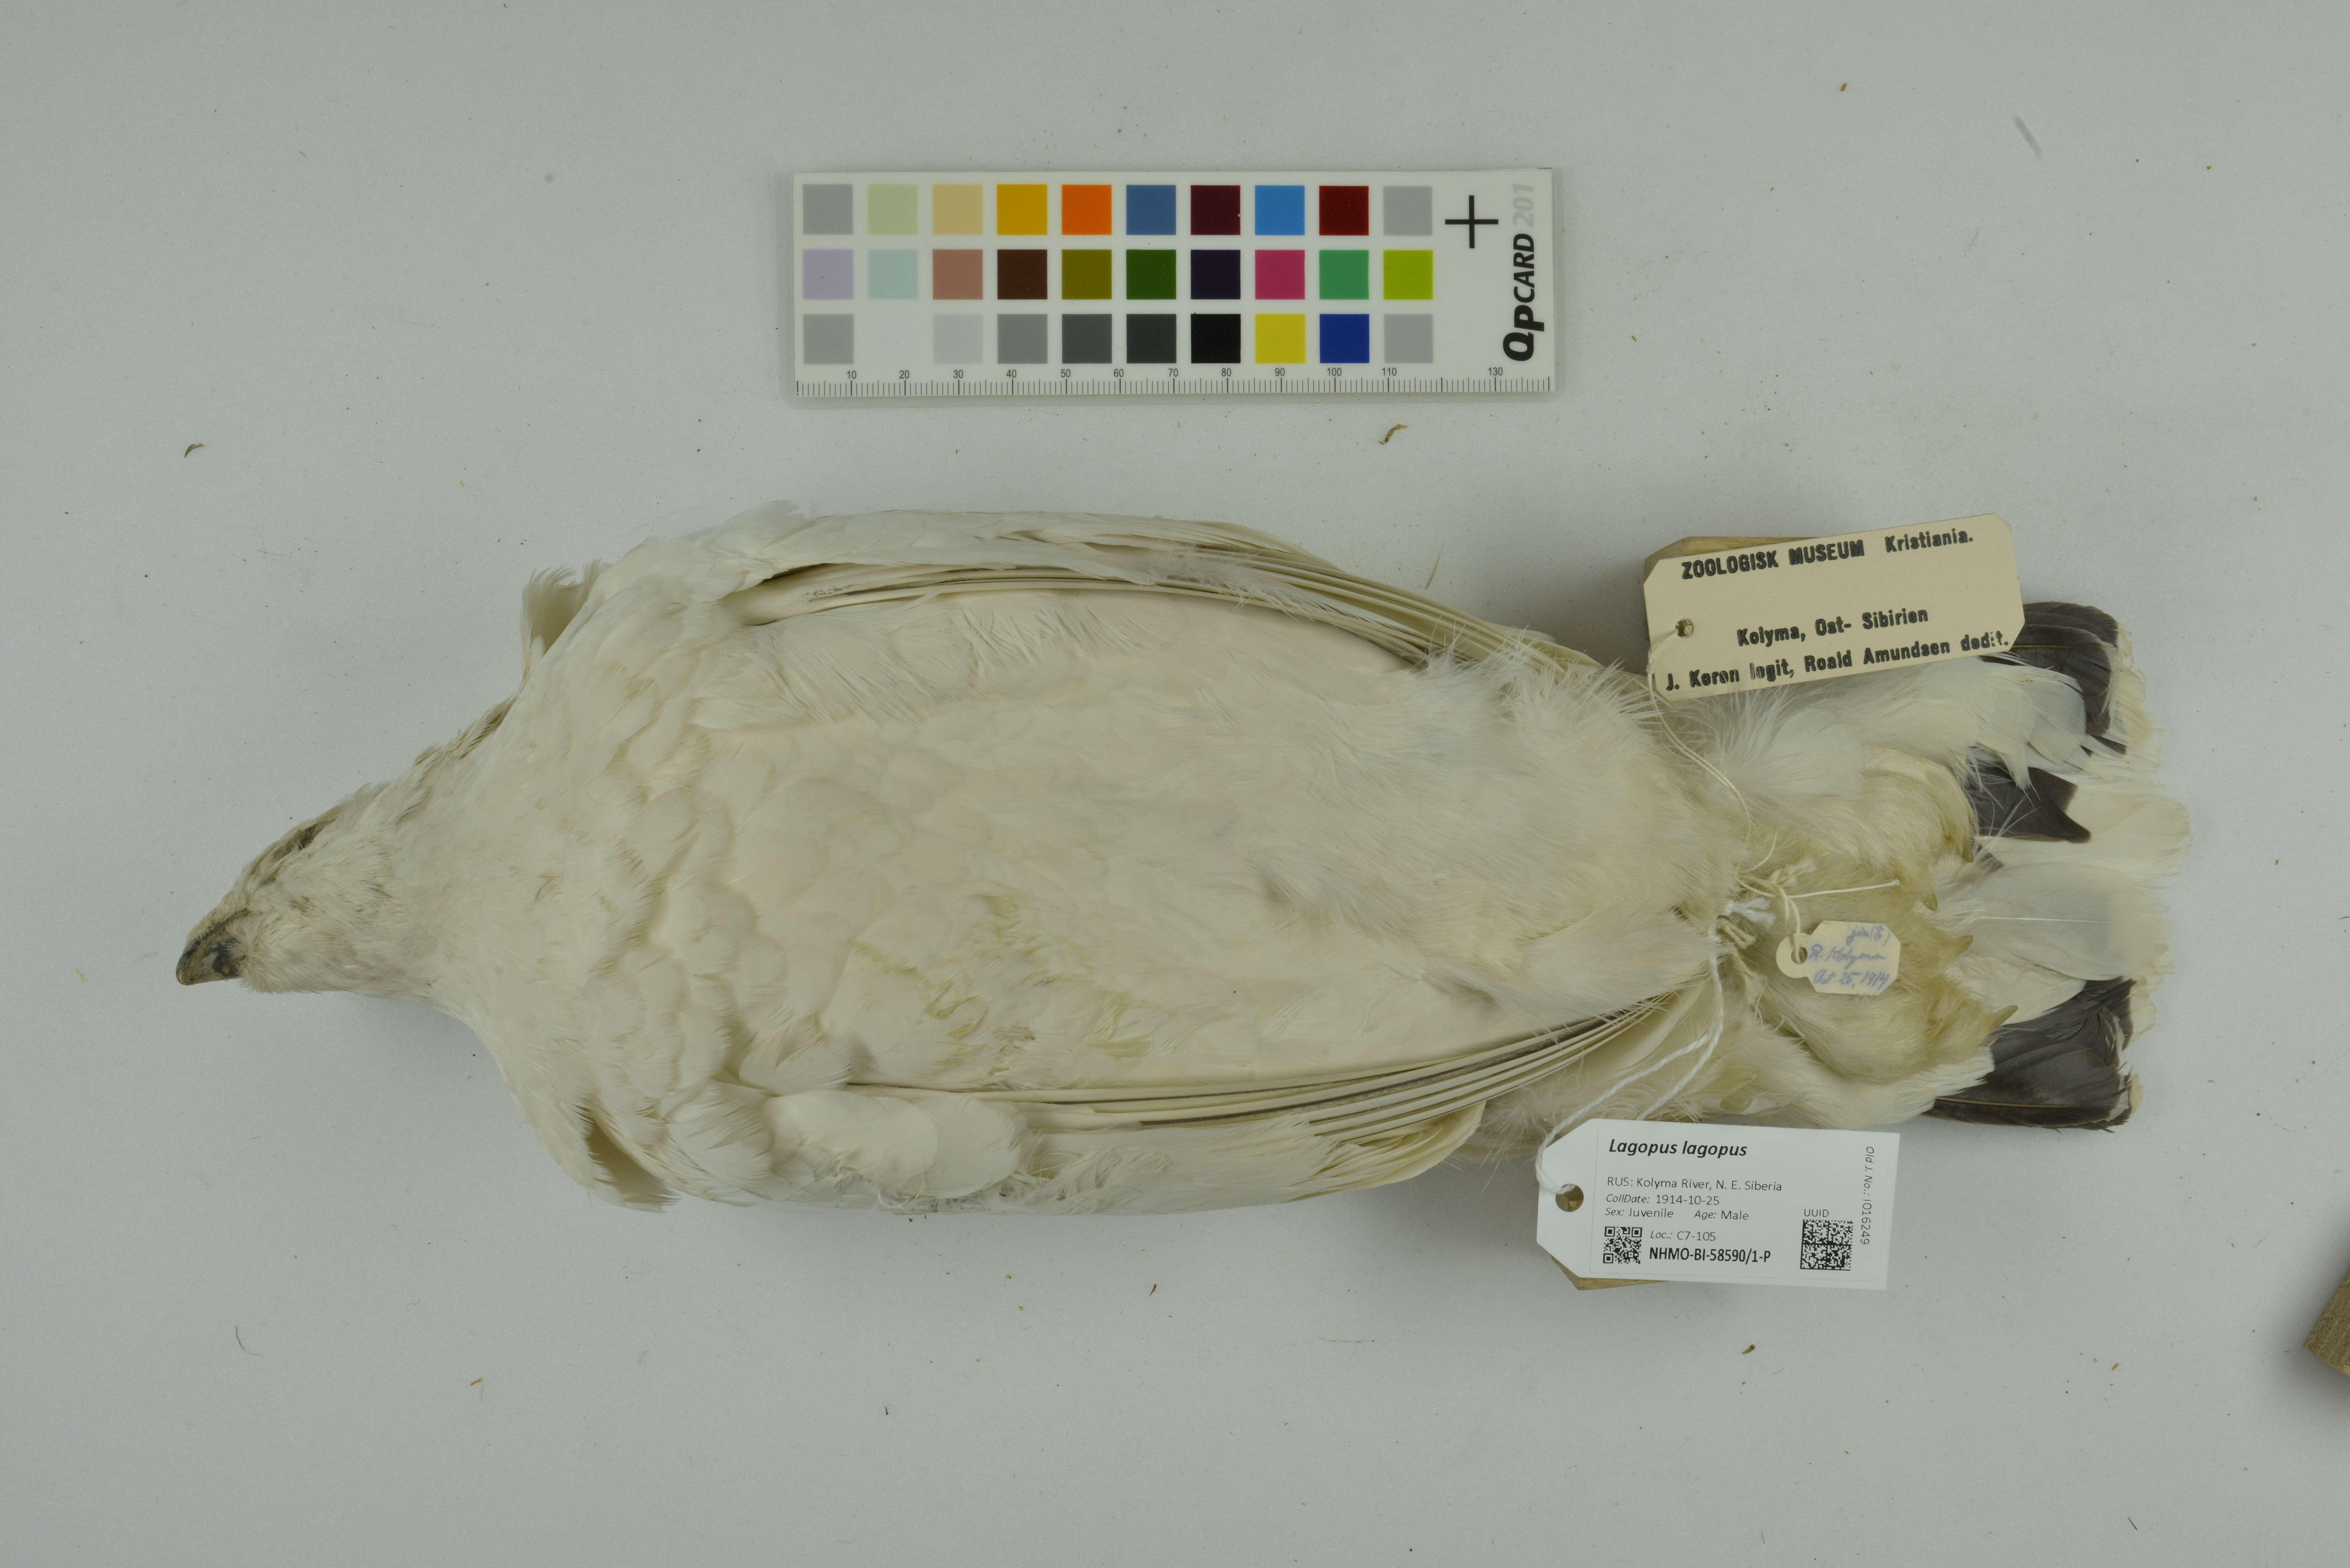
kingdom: Animalia
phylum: Chordata
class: Aves
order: Galliformes
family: Phasianidae
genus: Lagopus
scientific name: Lagopus lagopus
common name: Willow ptarmigan
